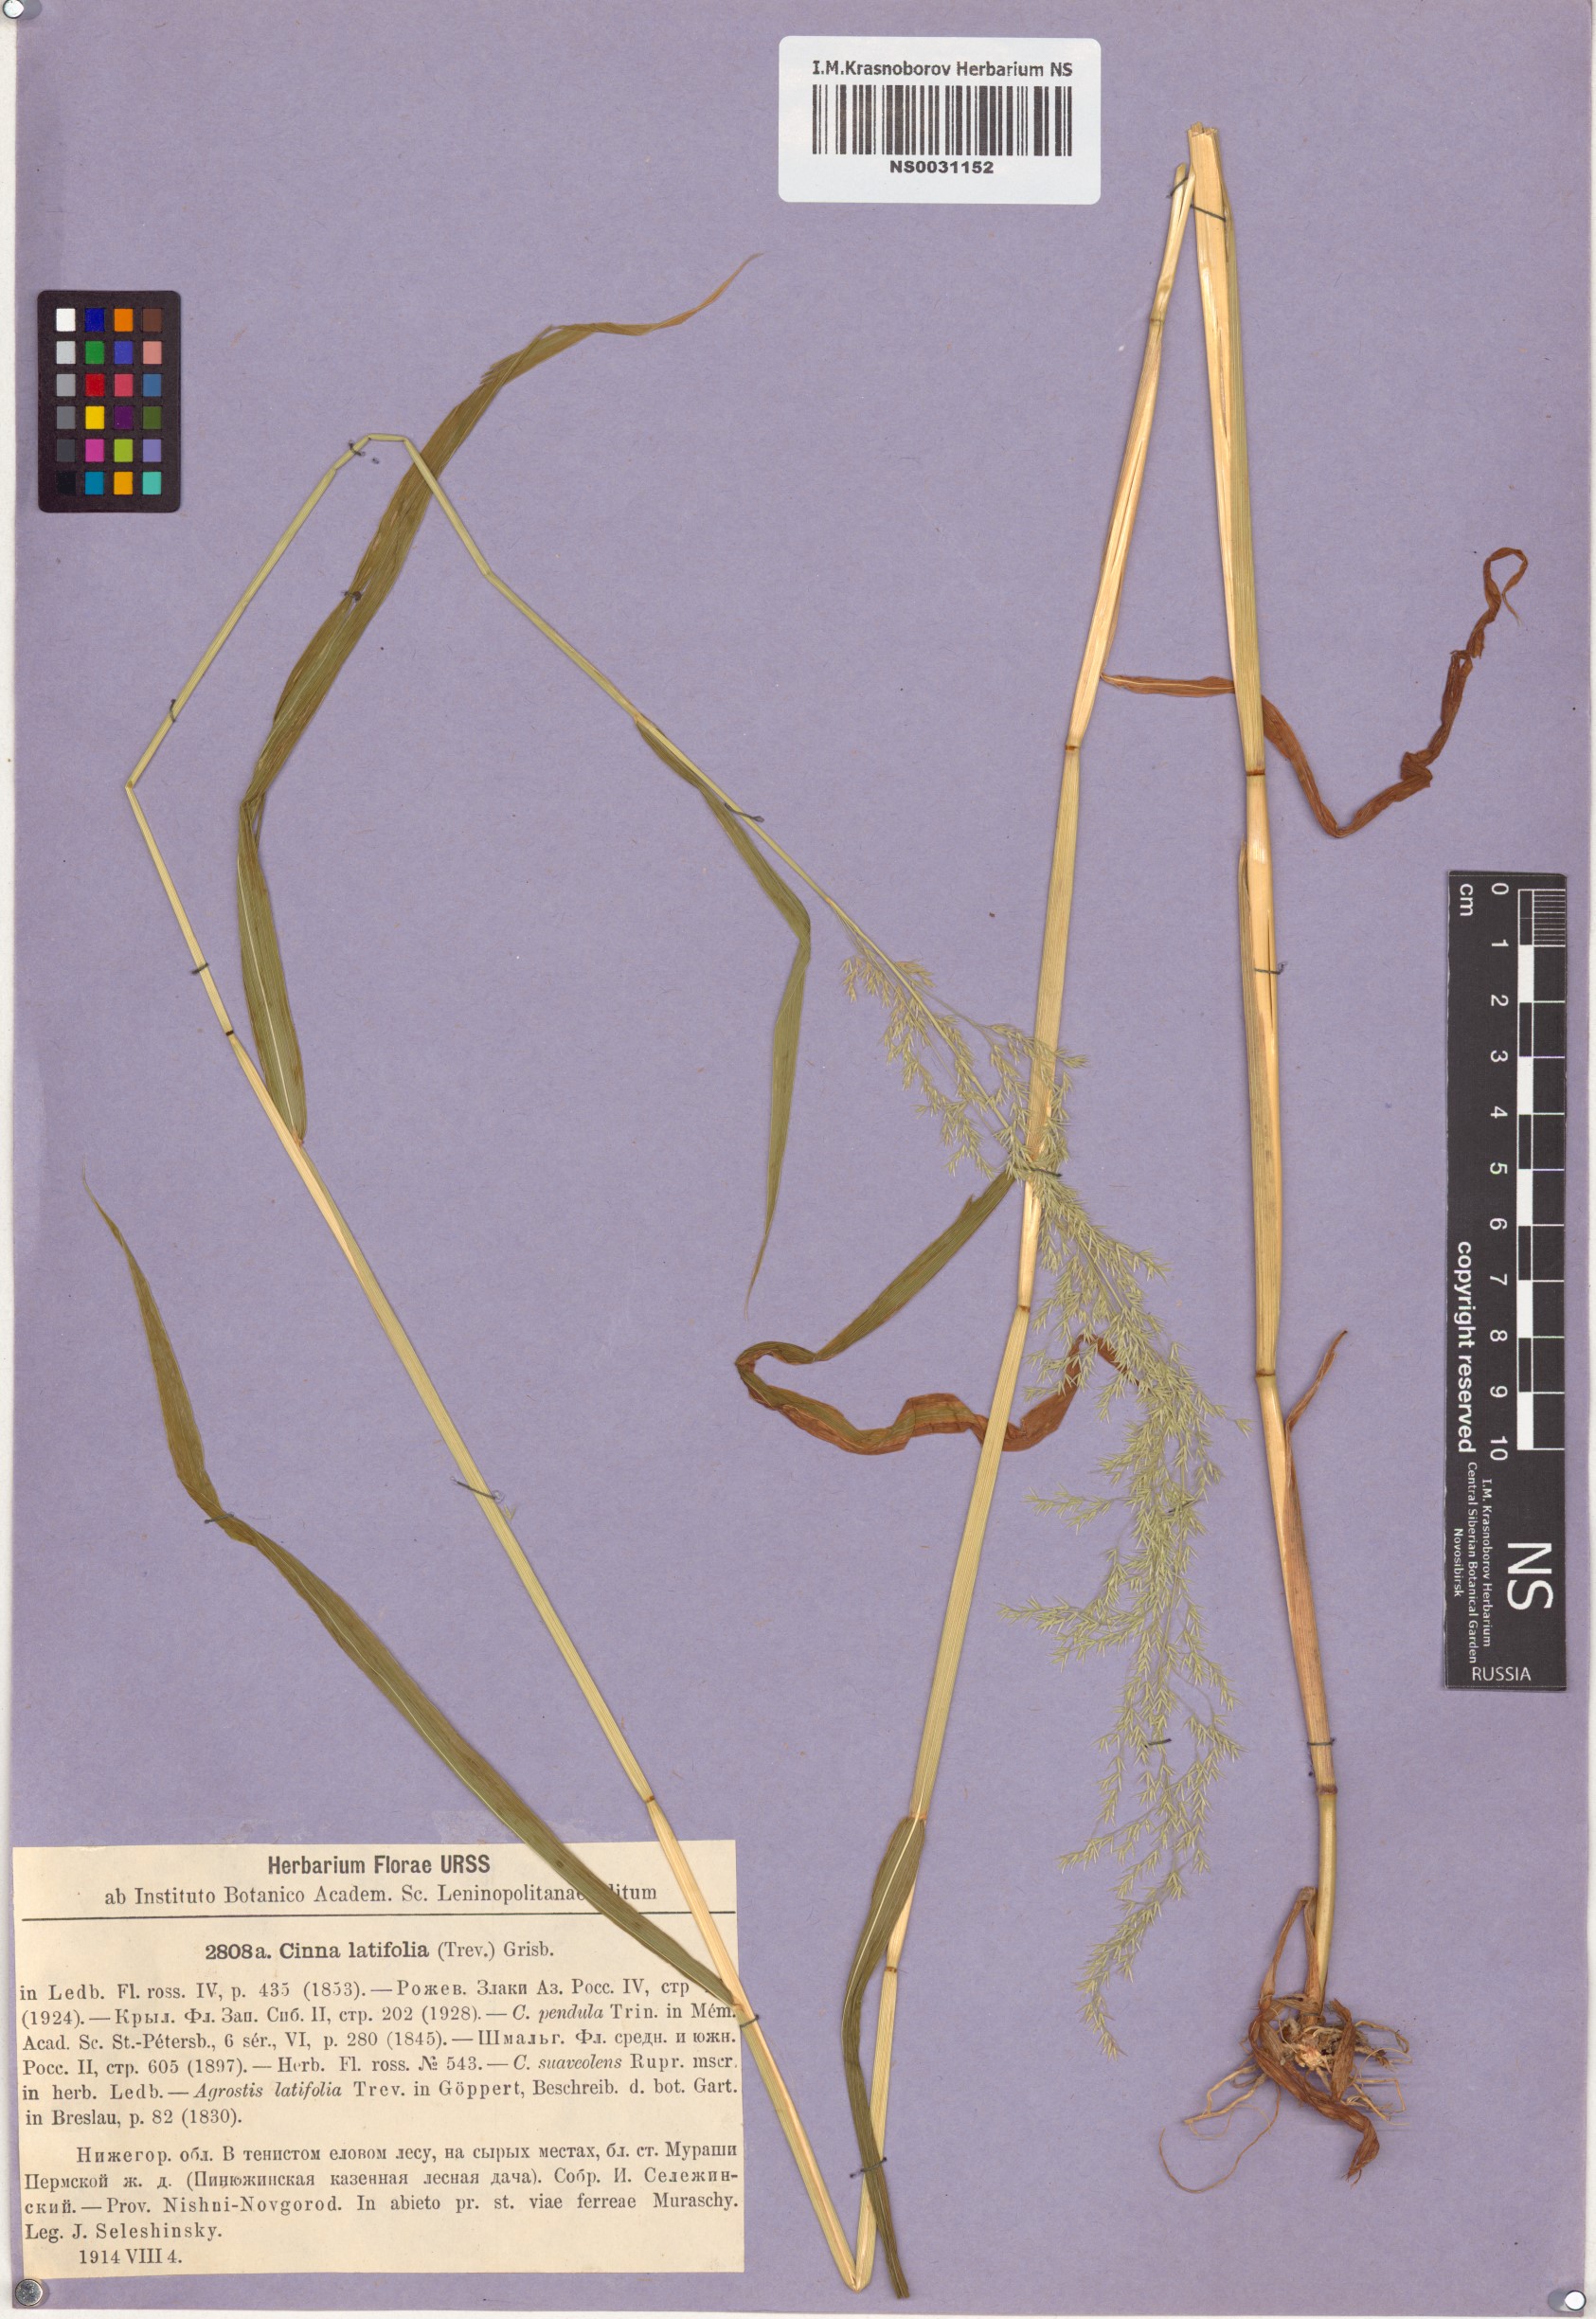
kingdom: Plantae
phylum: Tracheophyta
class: Liliopsida
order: Poales
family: Poaceae
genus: Cinna
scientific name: Cinna latifolia
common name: Drooping woodreed
